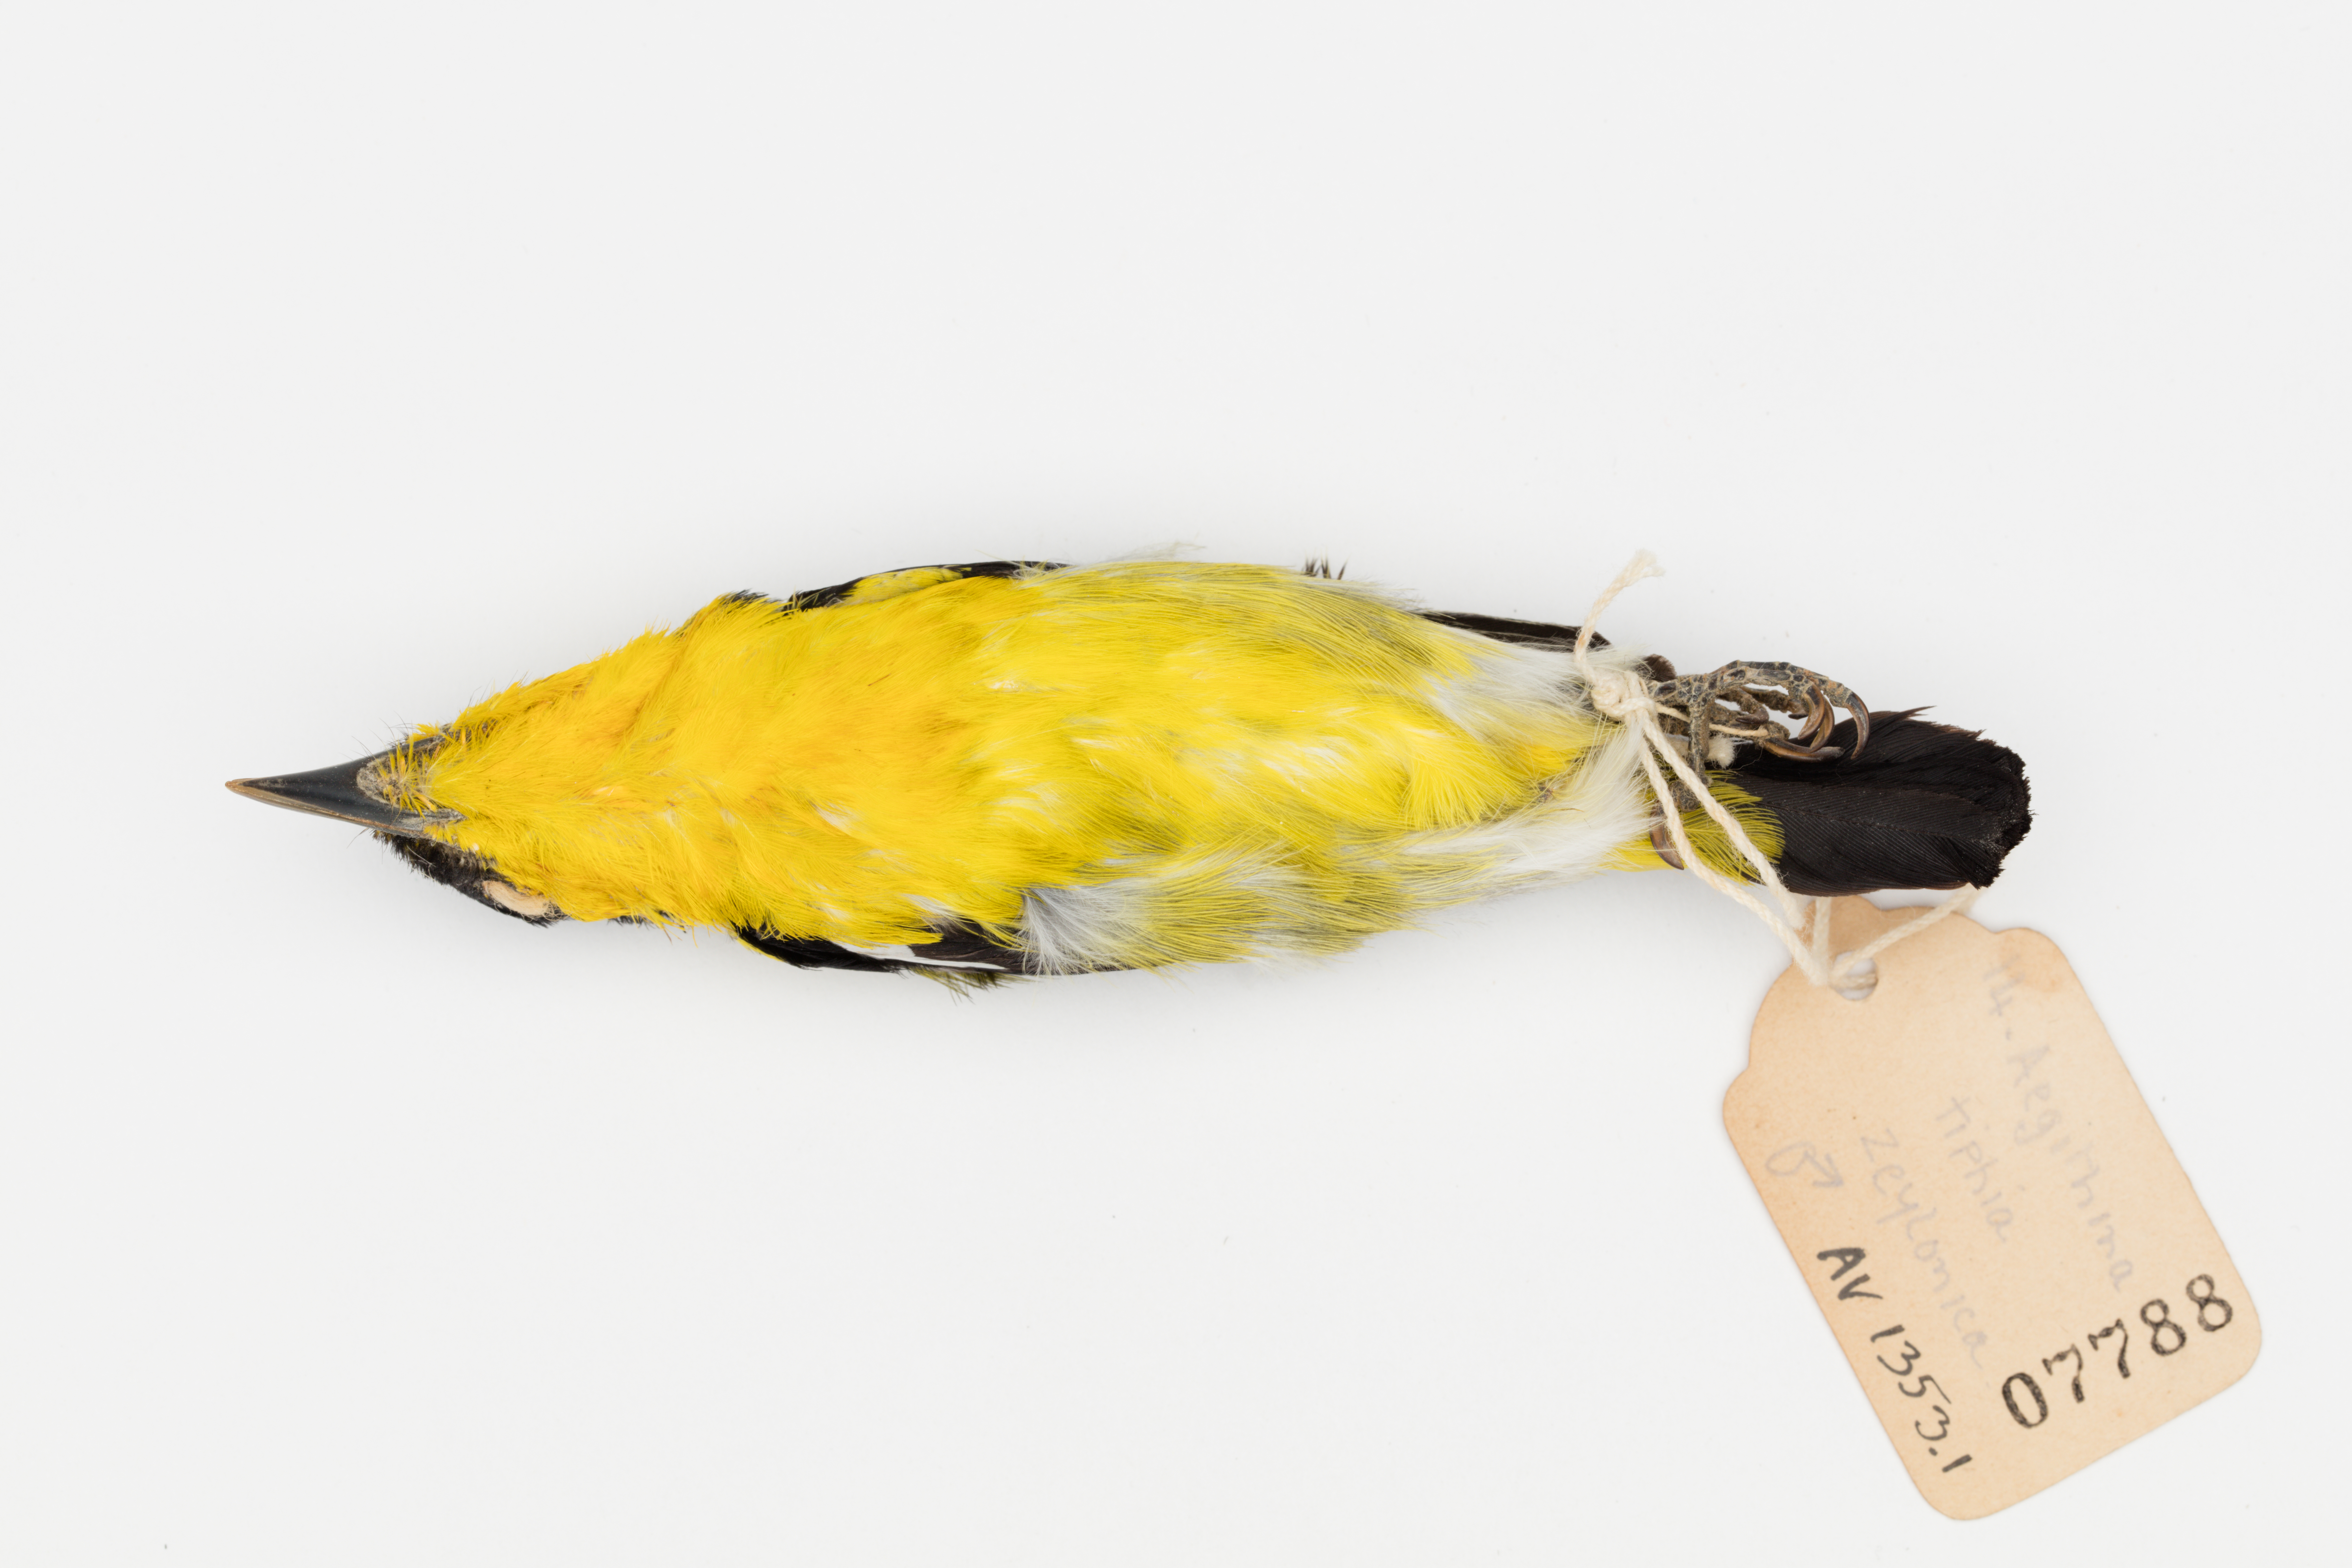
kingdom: Animalia
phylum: Chordata
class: Aves
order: Passeriformes
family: Aegithinidae
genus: Aegithina
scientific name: Aegithina tiphia
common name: Common iora
